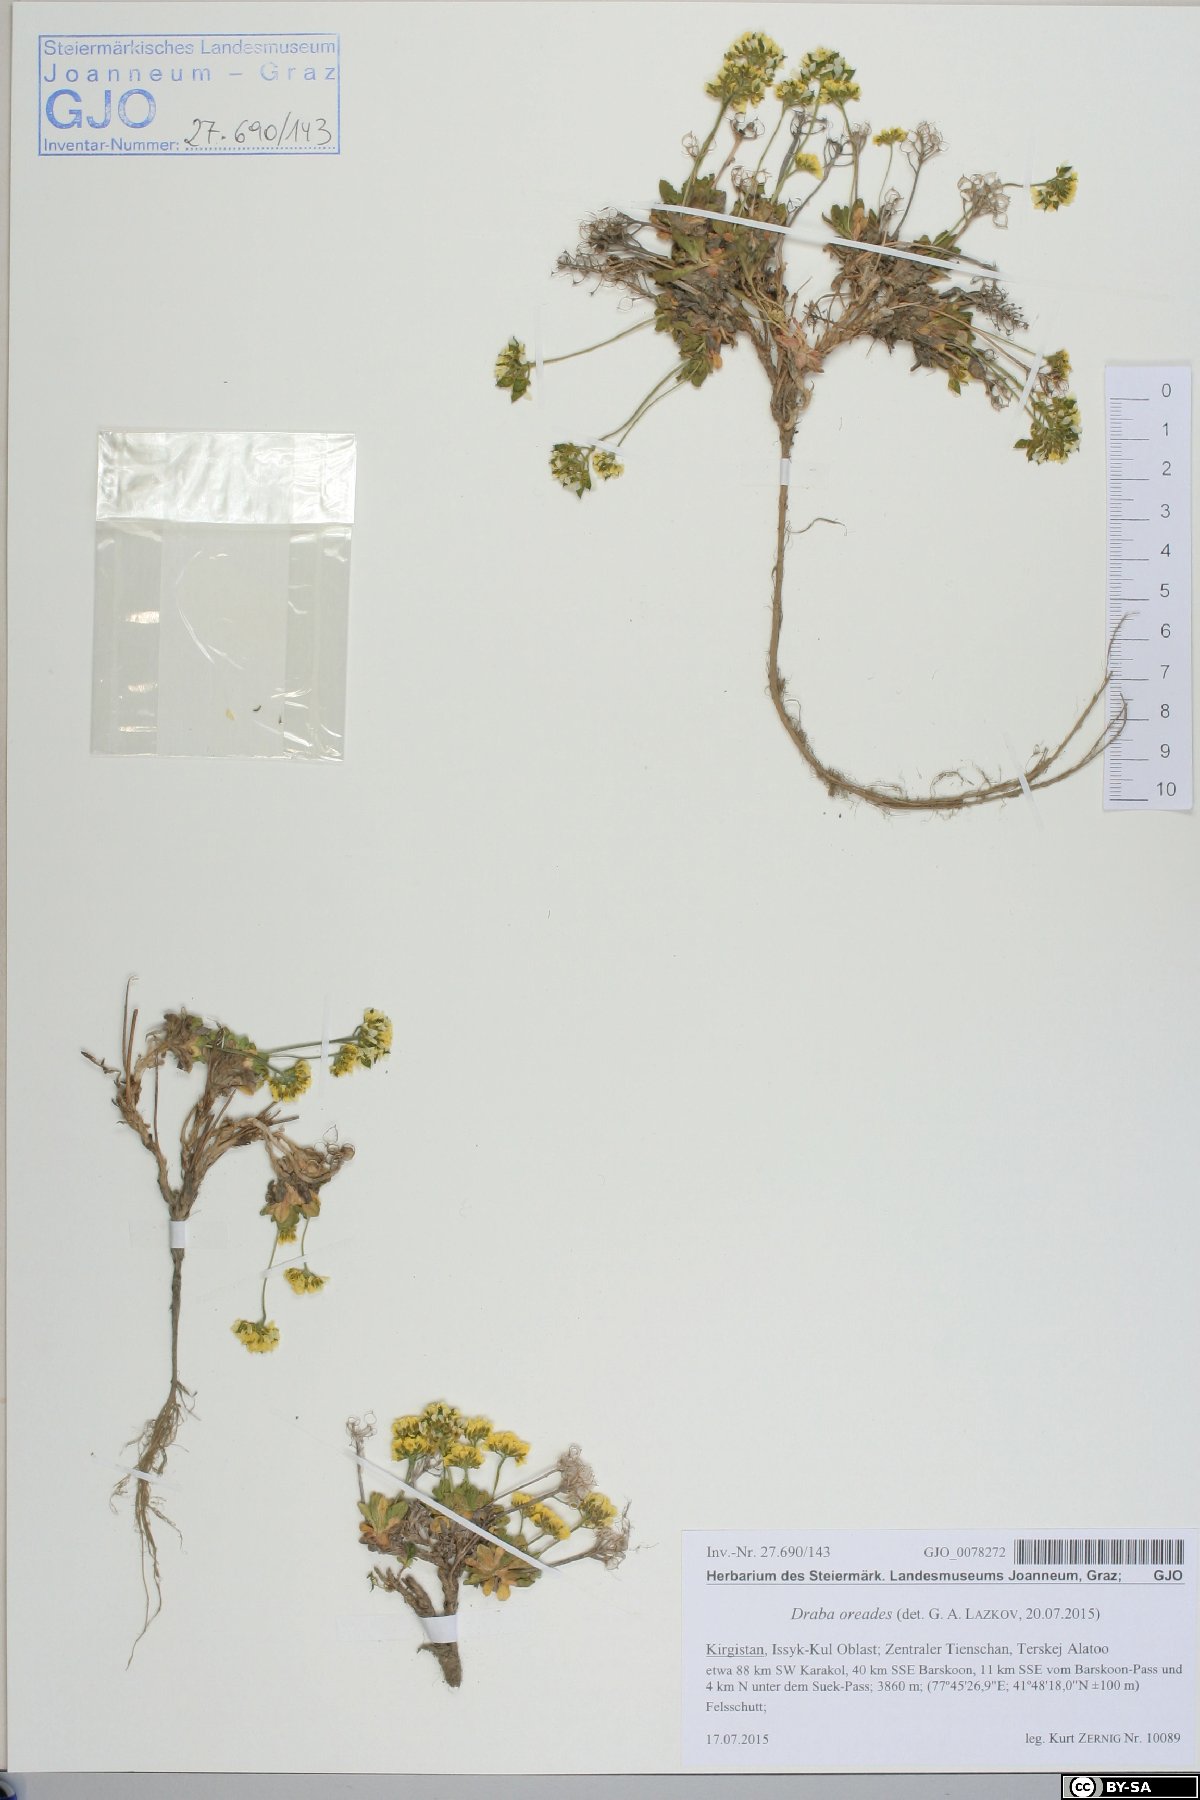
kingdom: Plantae
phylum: Tracheophyta
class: Magnoliopsida
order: Brassicales
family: Brassicaceae
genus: Draba
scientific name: Draba oreades
